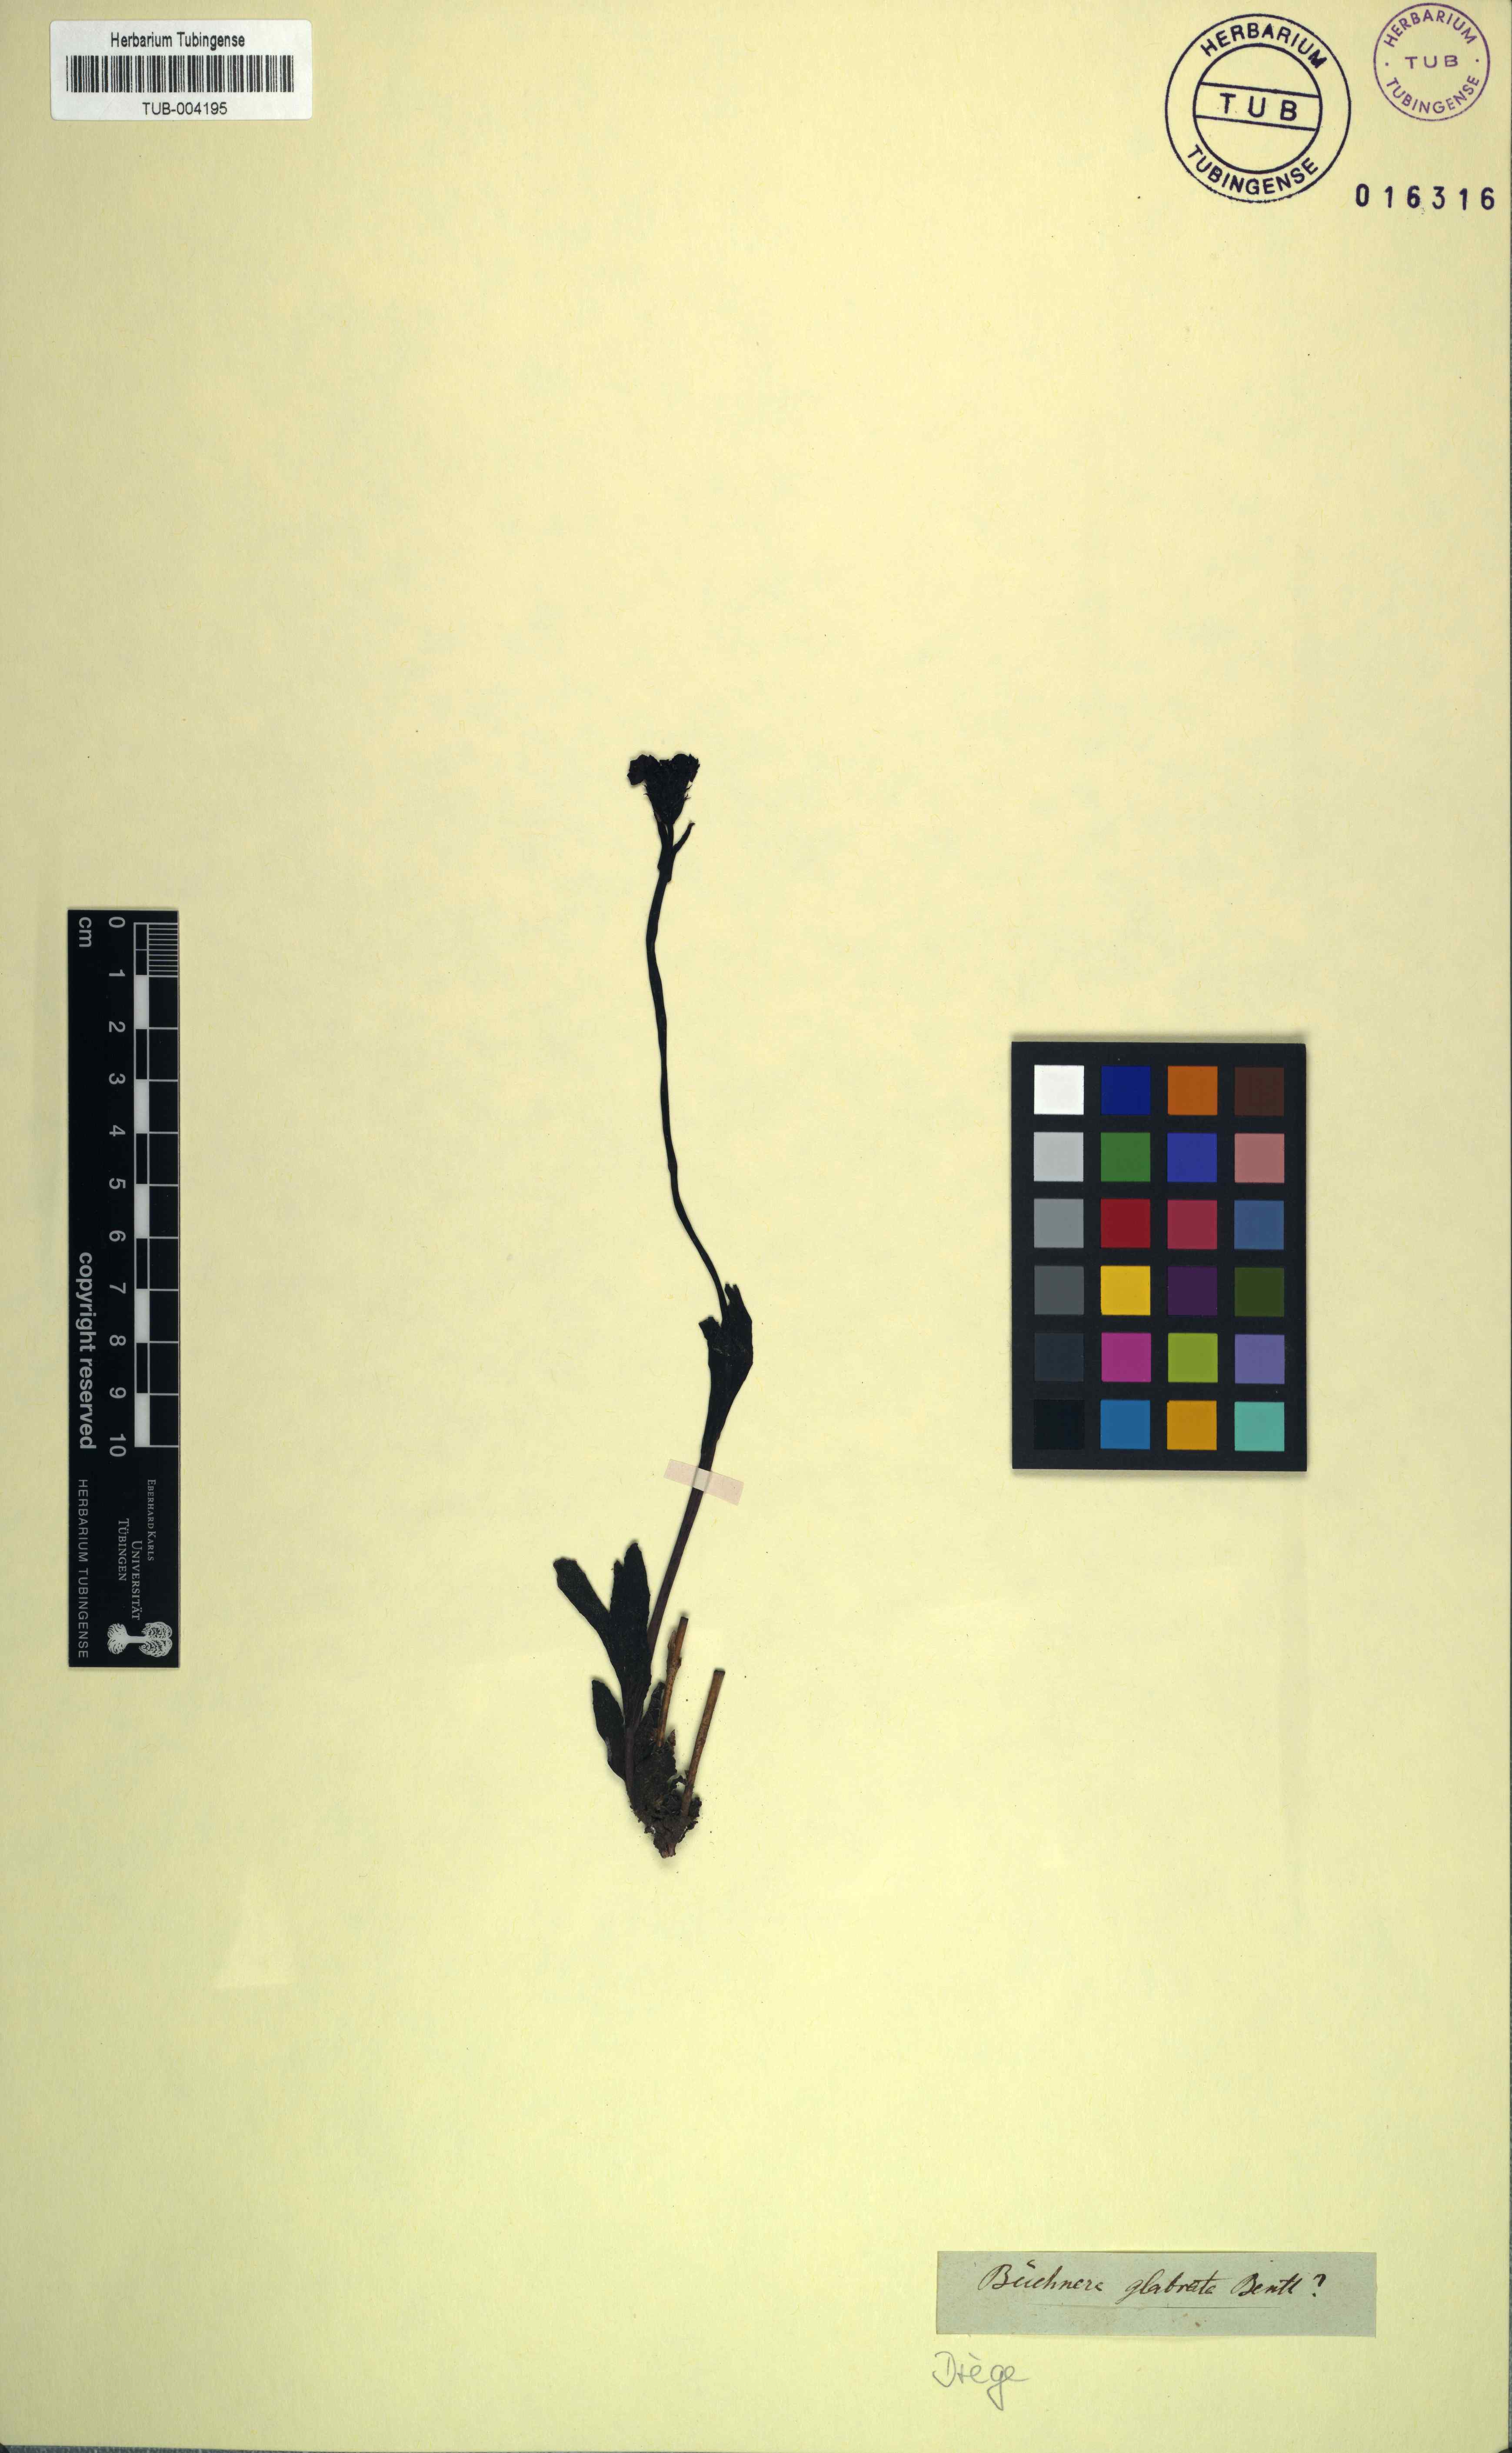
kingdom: Plantae
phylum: Tracheophyta
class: Magnoliopsida
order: Lamiales
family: Orobanchaceae
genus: Buchnera
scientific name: Buchnera simplex
